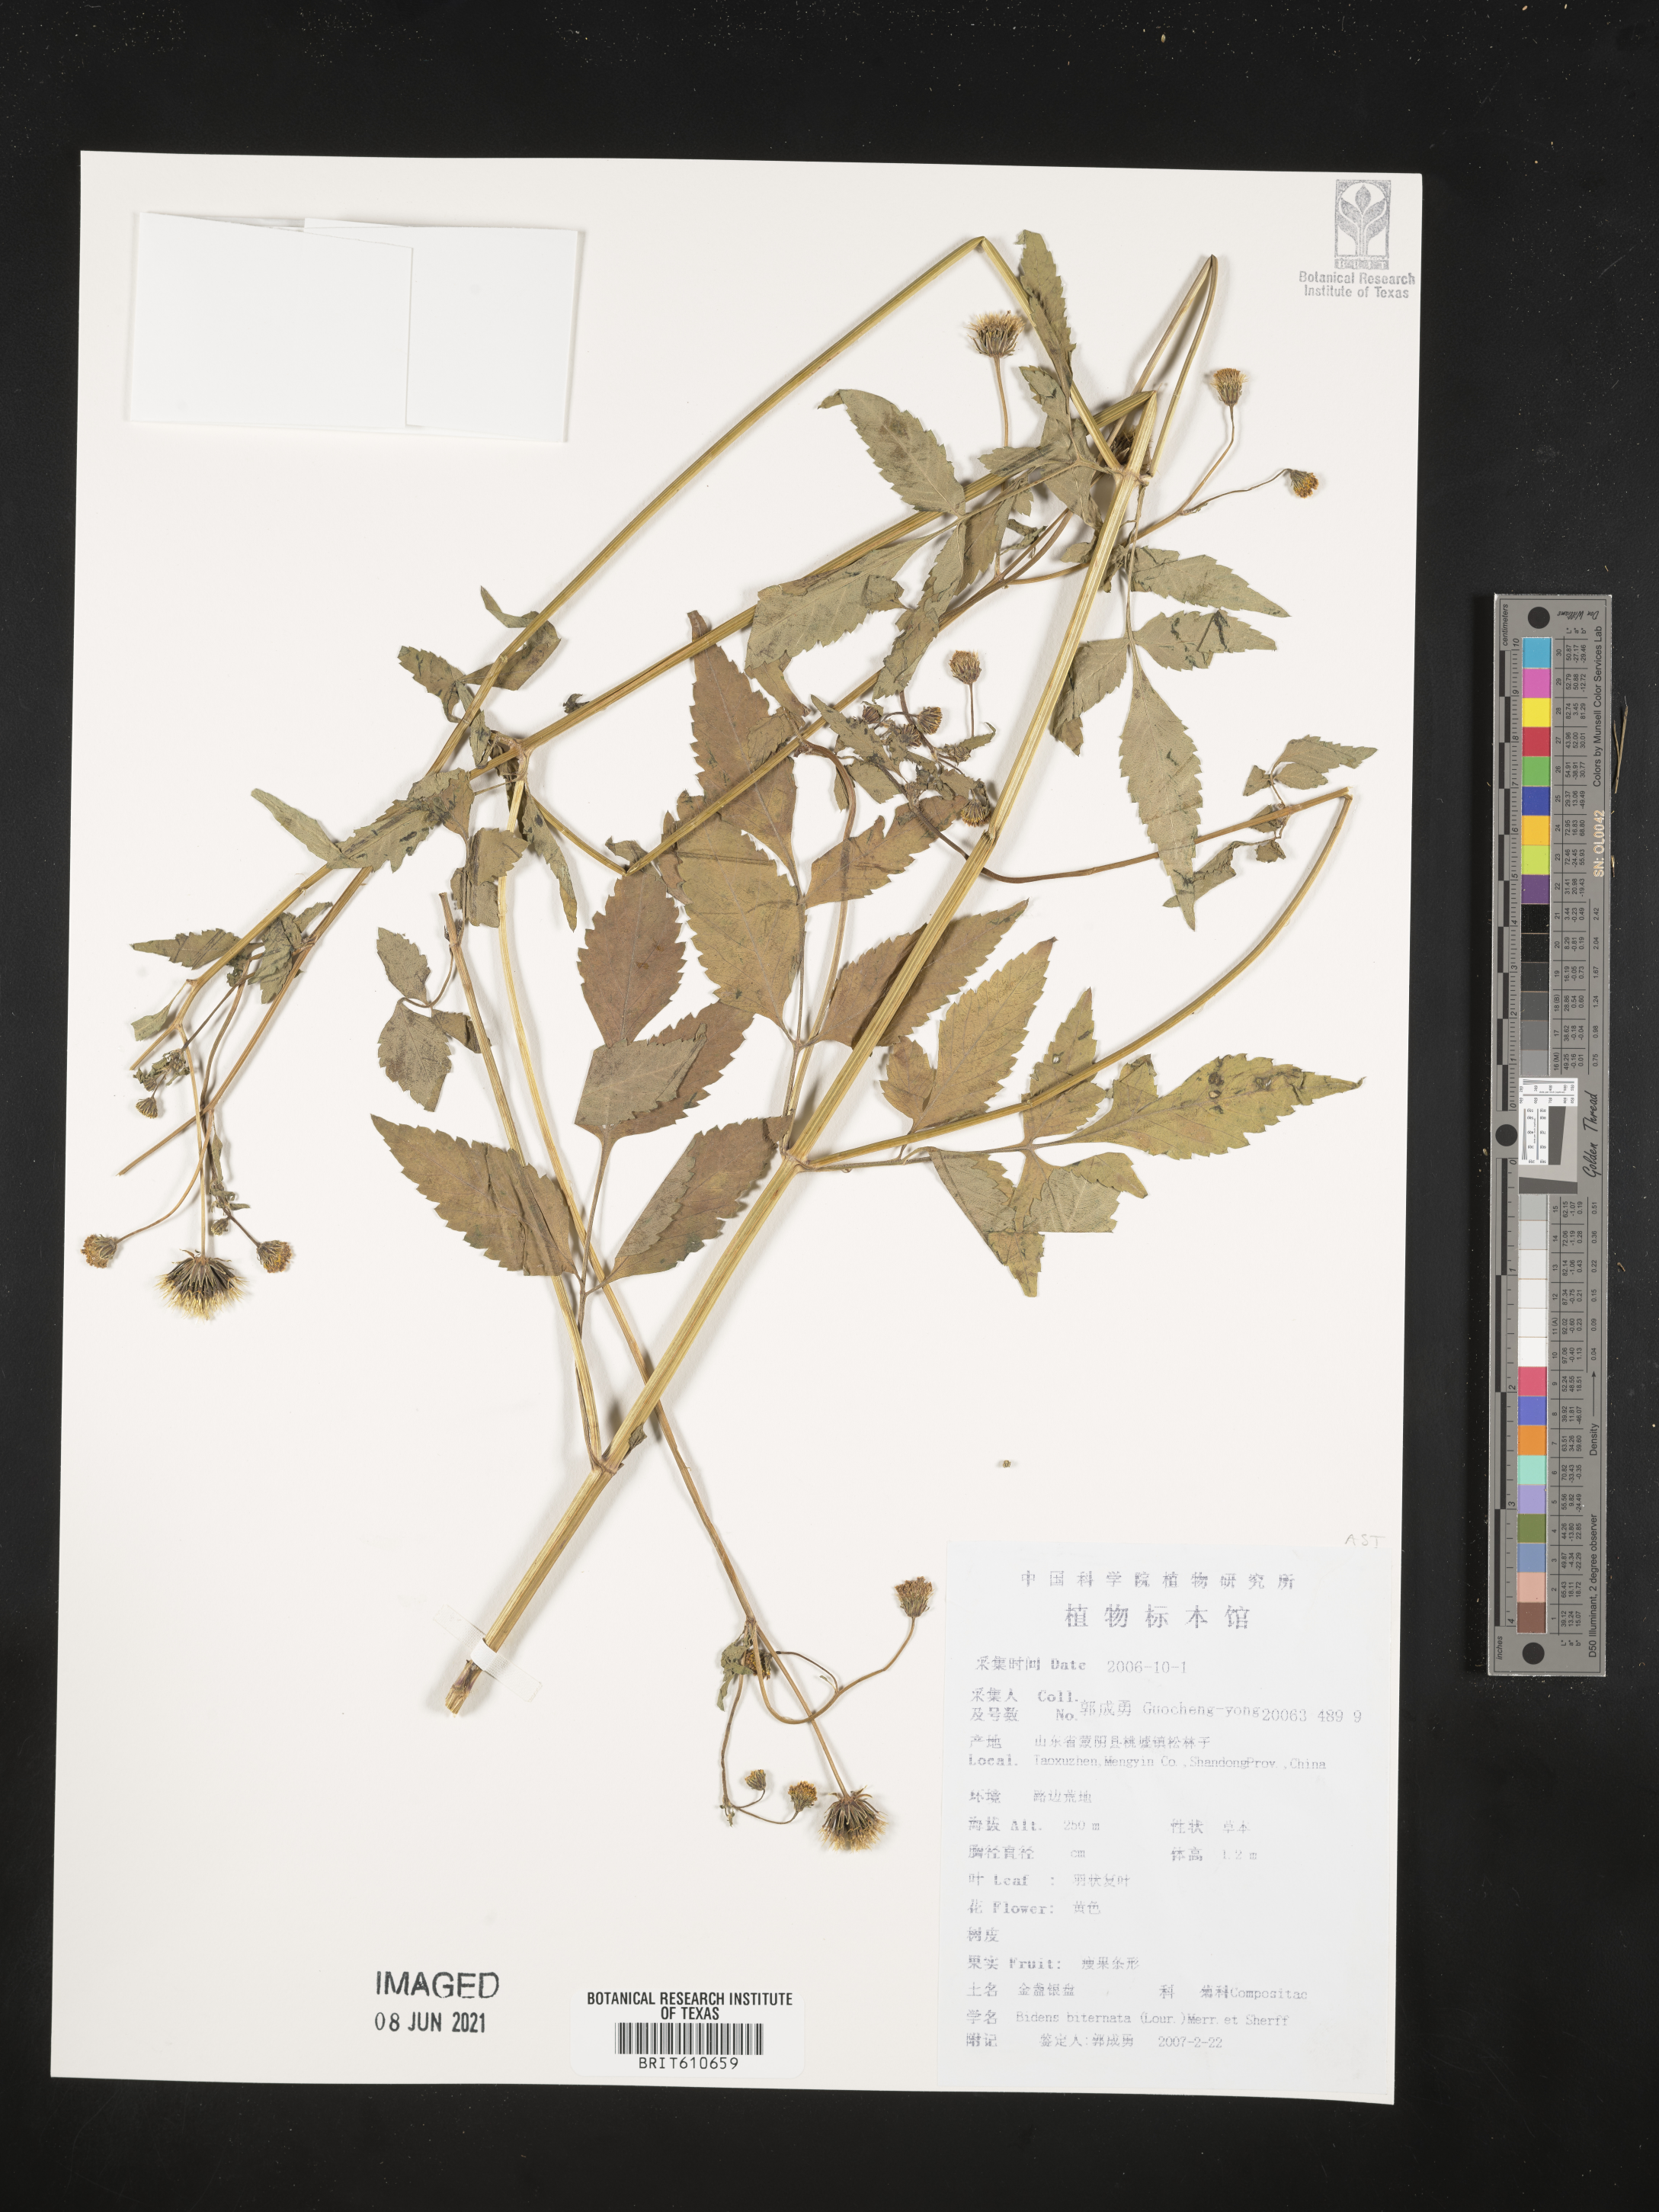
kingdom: Plantae
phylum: Tracheophyta
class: Magnoliopsida
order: Asterales
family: Asteraceae
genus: Bidens
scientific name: Bidens biternata
